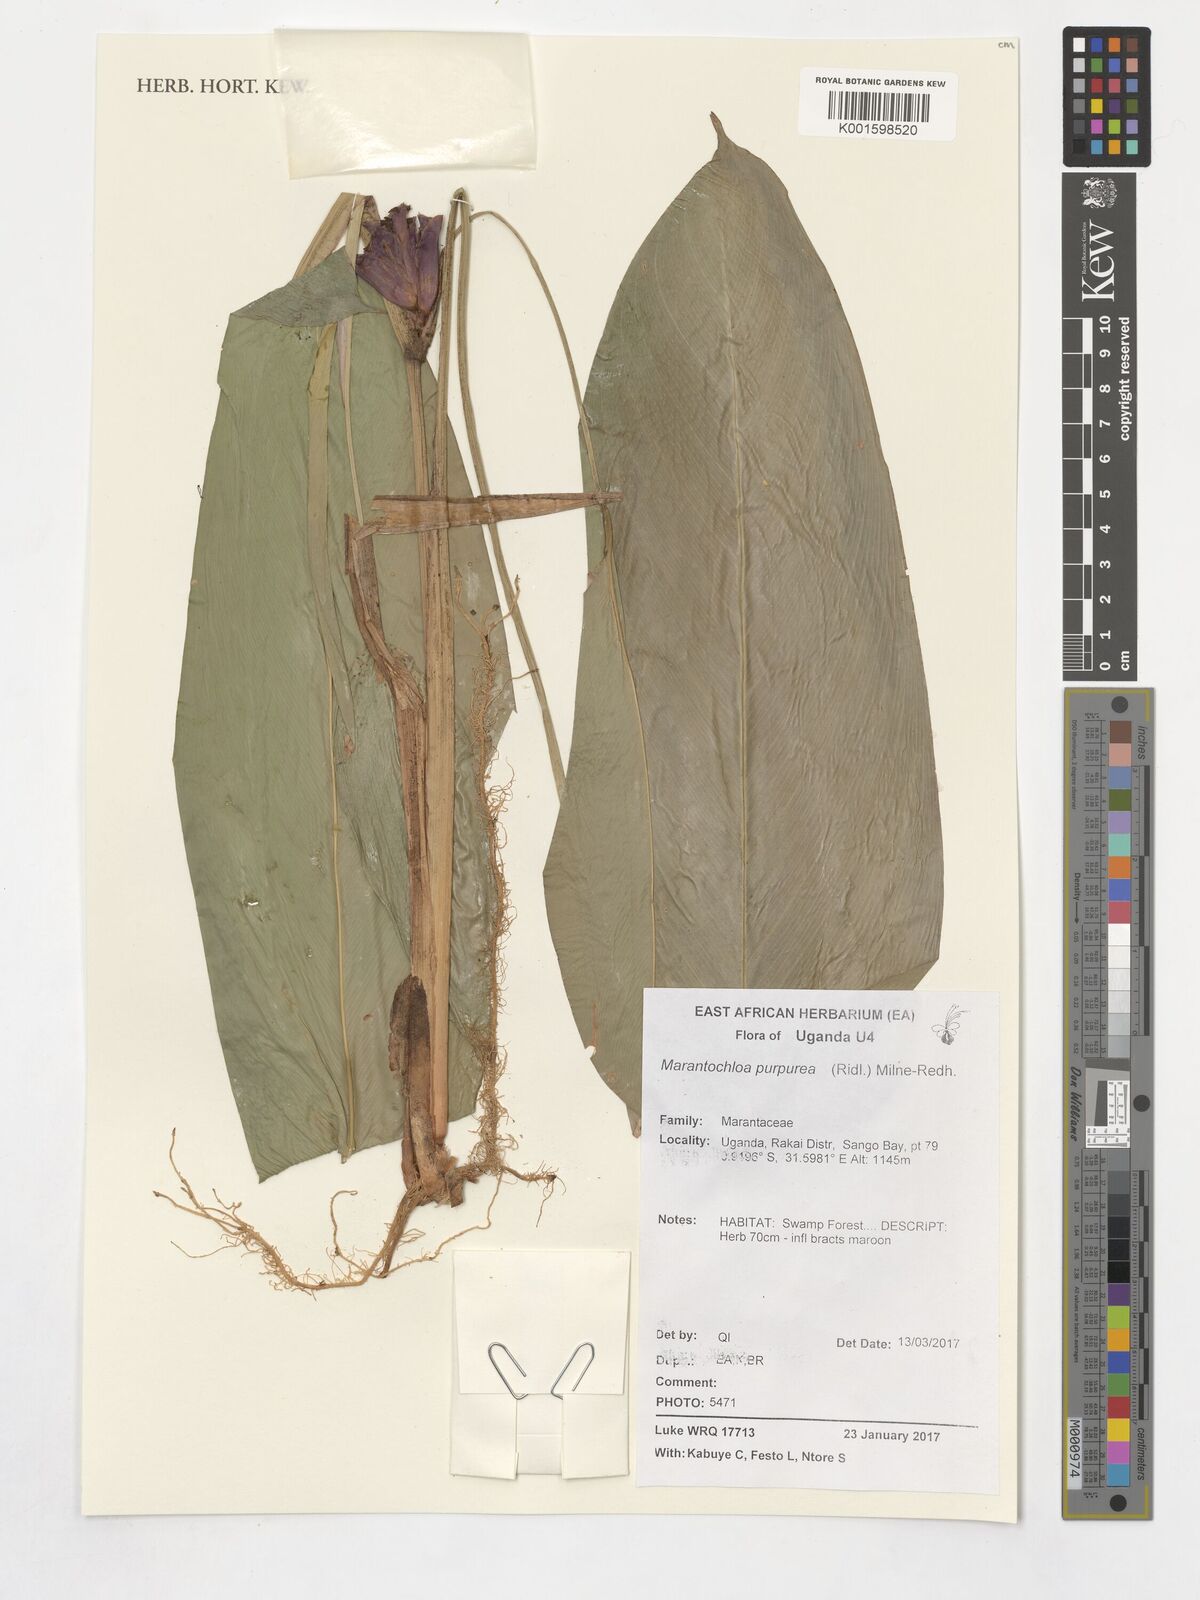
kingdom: Plantae
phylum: Tracheophyta
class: Liliopsida
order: Zingiberales
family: Marantaceae
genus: Marantochloa
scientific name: Marantochloa purpurea
